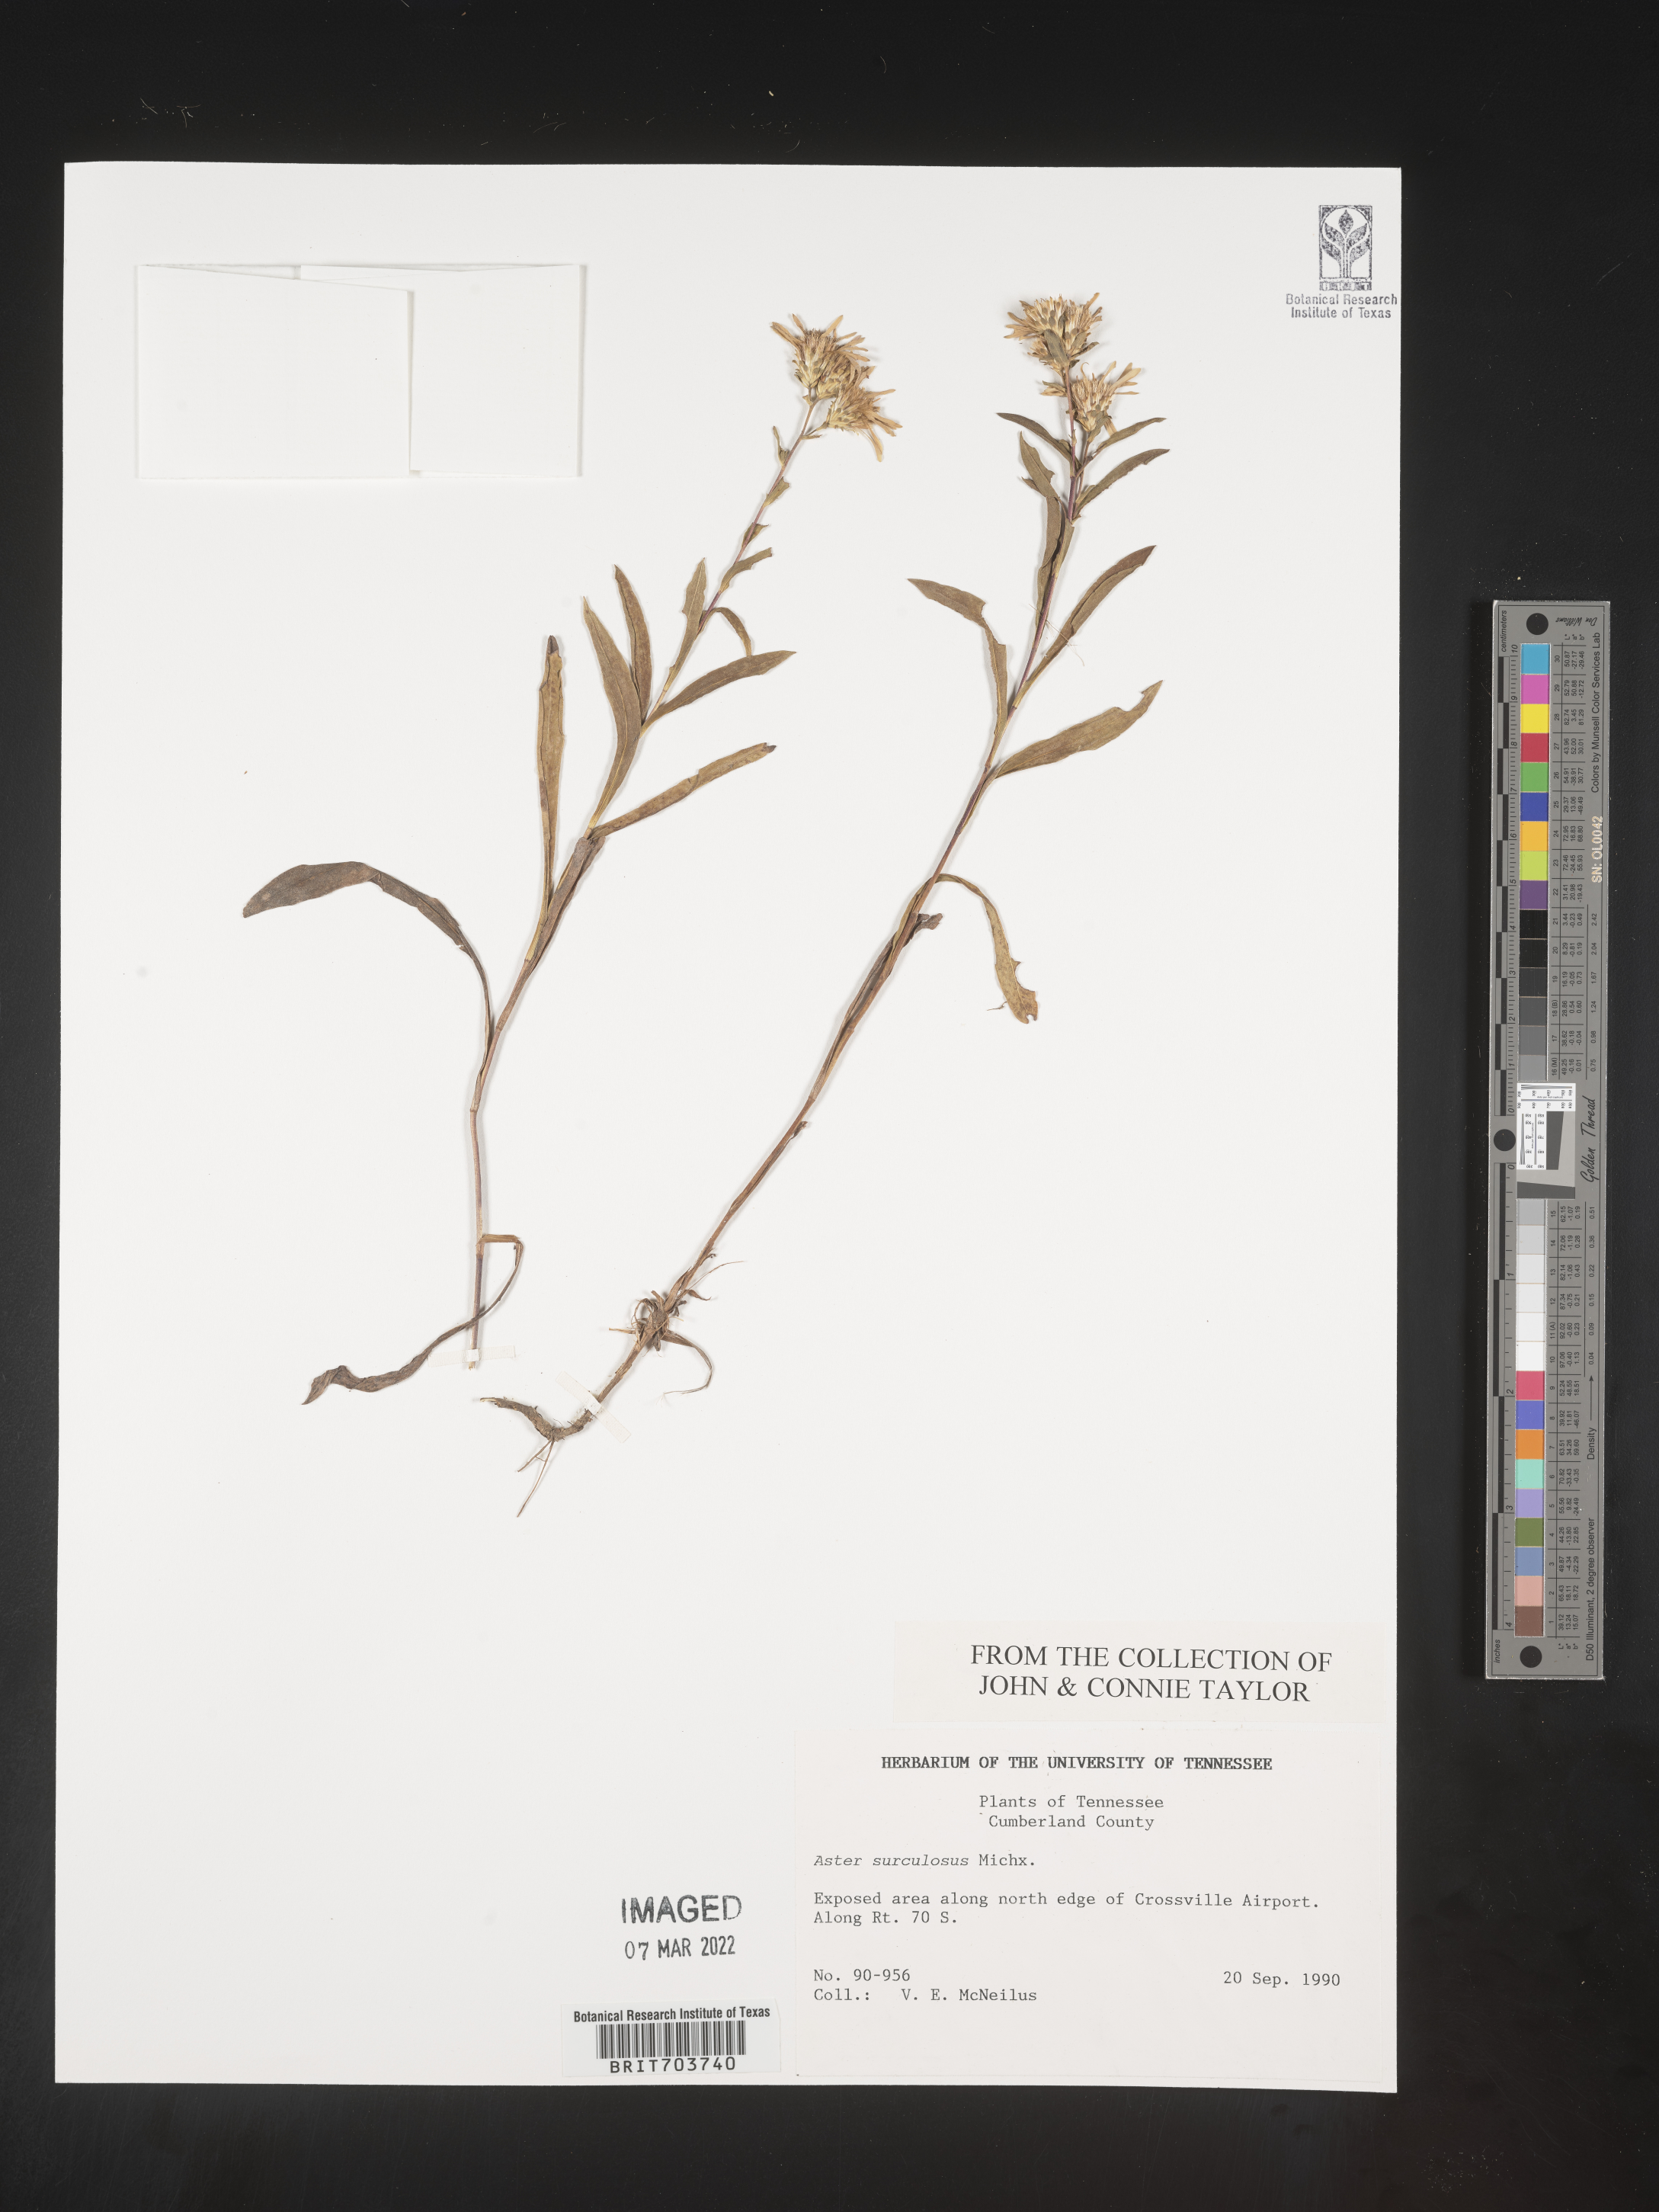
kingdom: Plantae
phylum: Tracheophyta
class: Magnoliopsida
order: Asterales
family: Asteraceae
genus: Eurybia
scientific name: Eurybia surculosa
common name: Creeping aster
